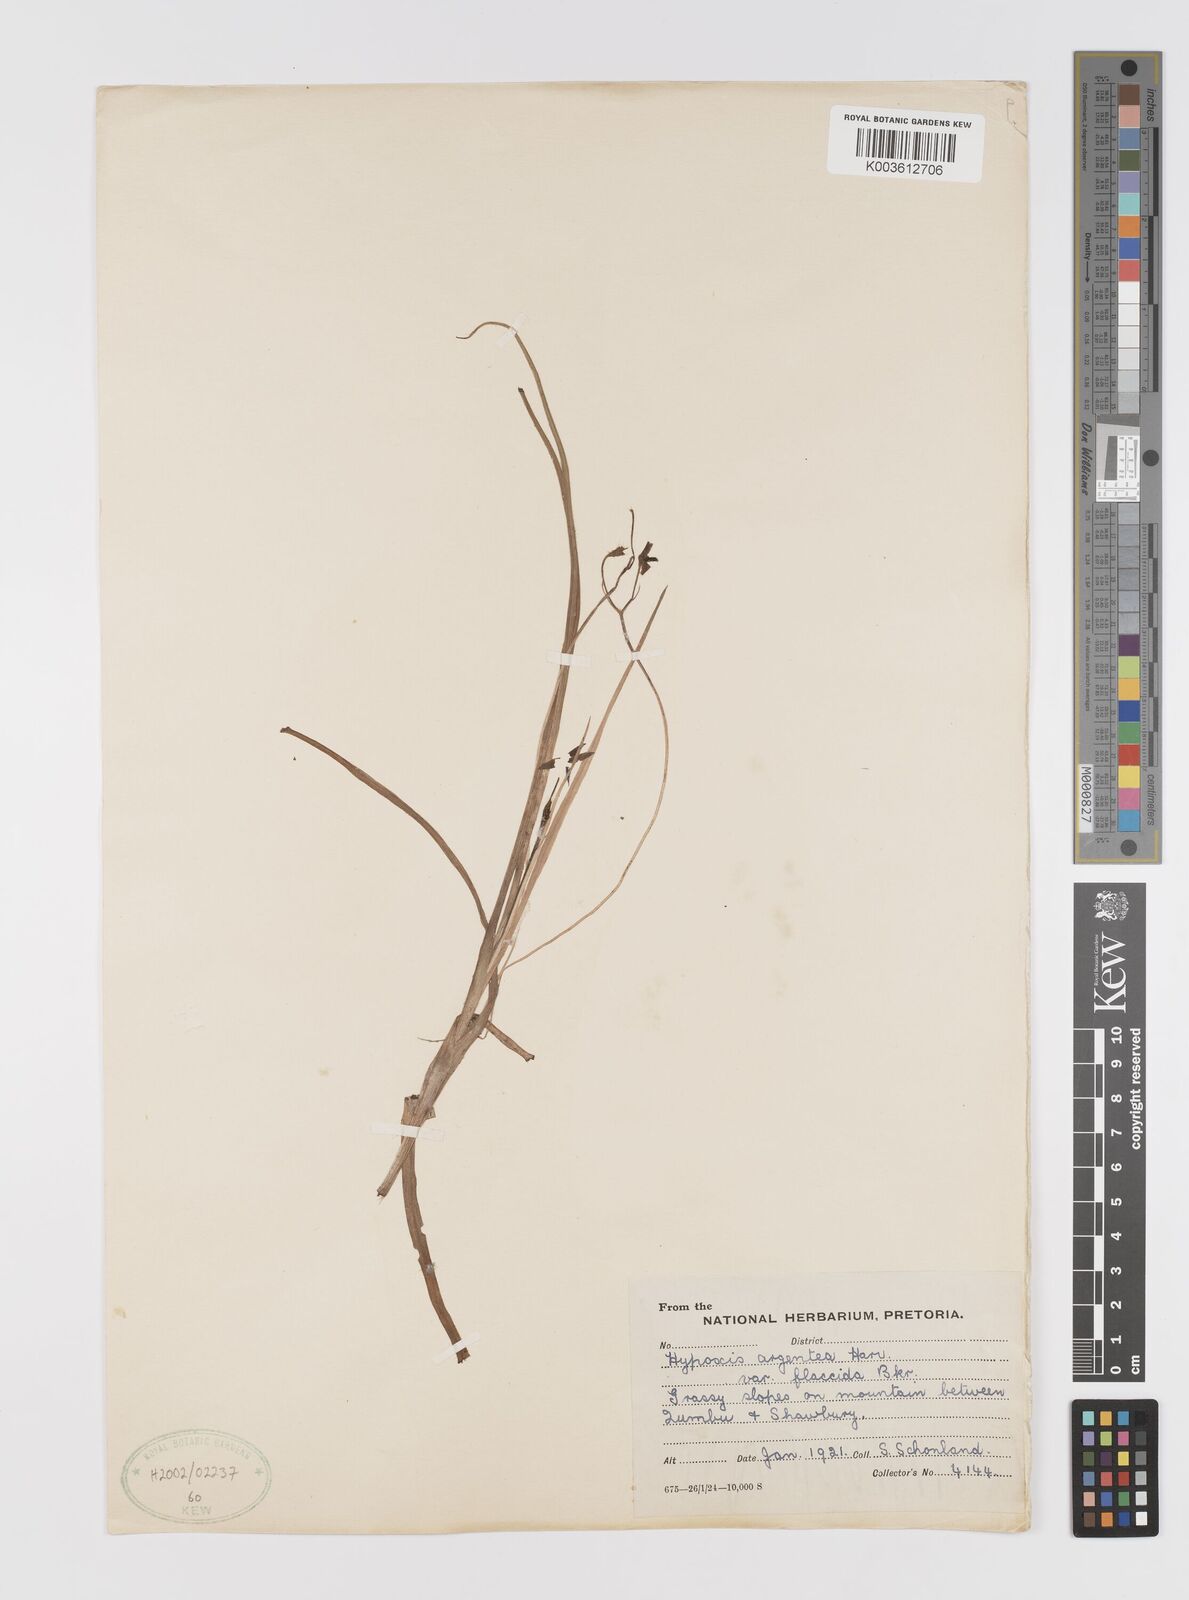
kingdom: Plantae
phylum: Tracheophyta
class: Liliopsida
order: Asparagales
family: Hypoxidaceae
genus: Hypoxis
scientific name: Hypoxis argentea
